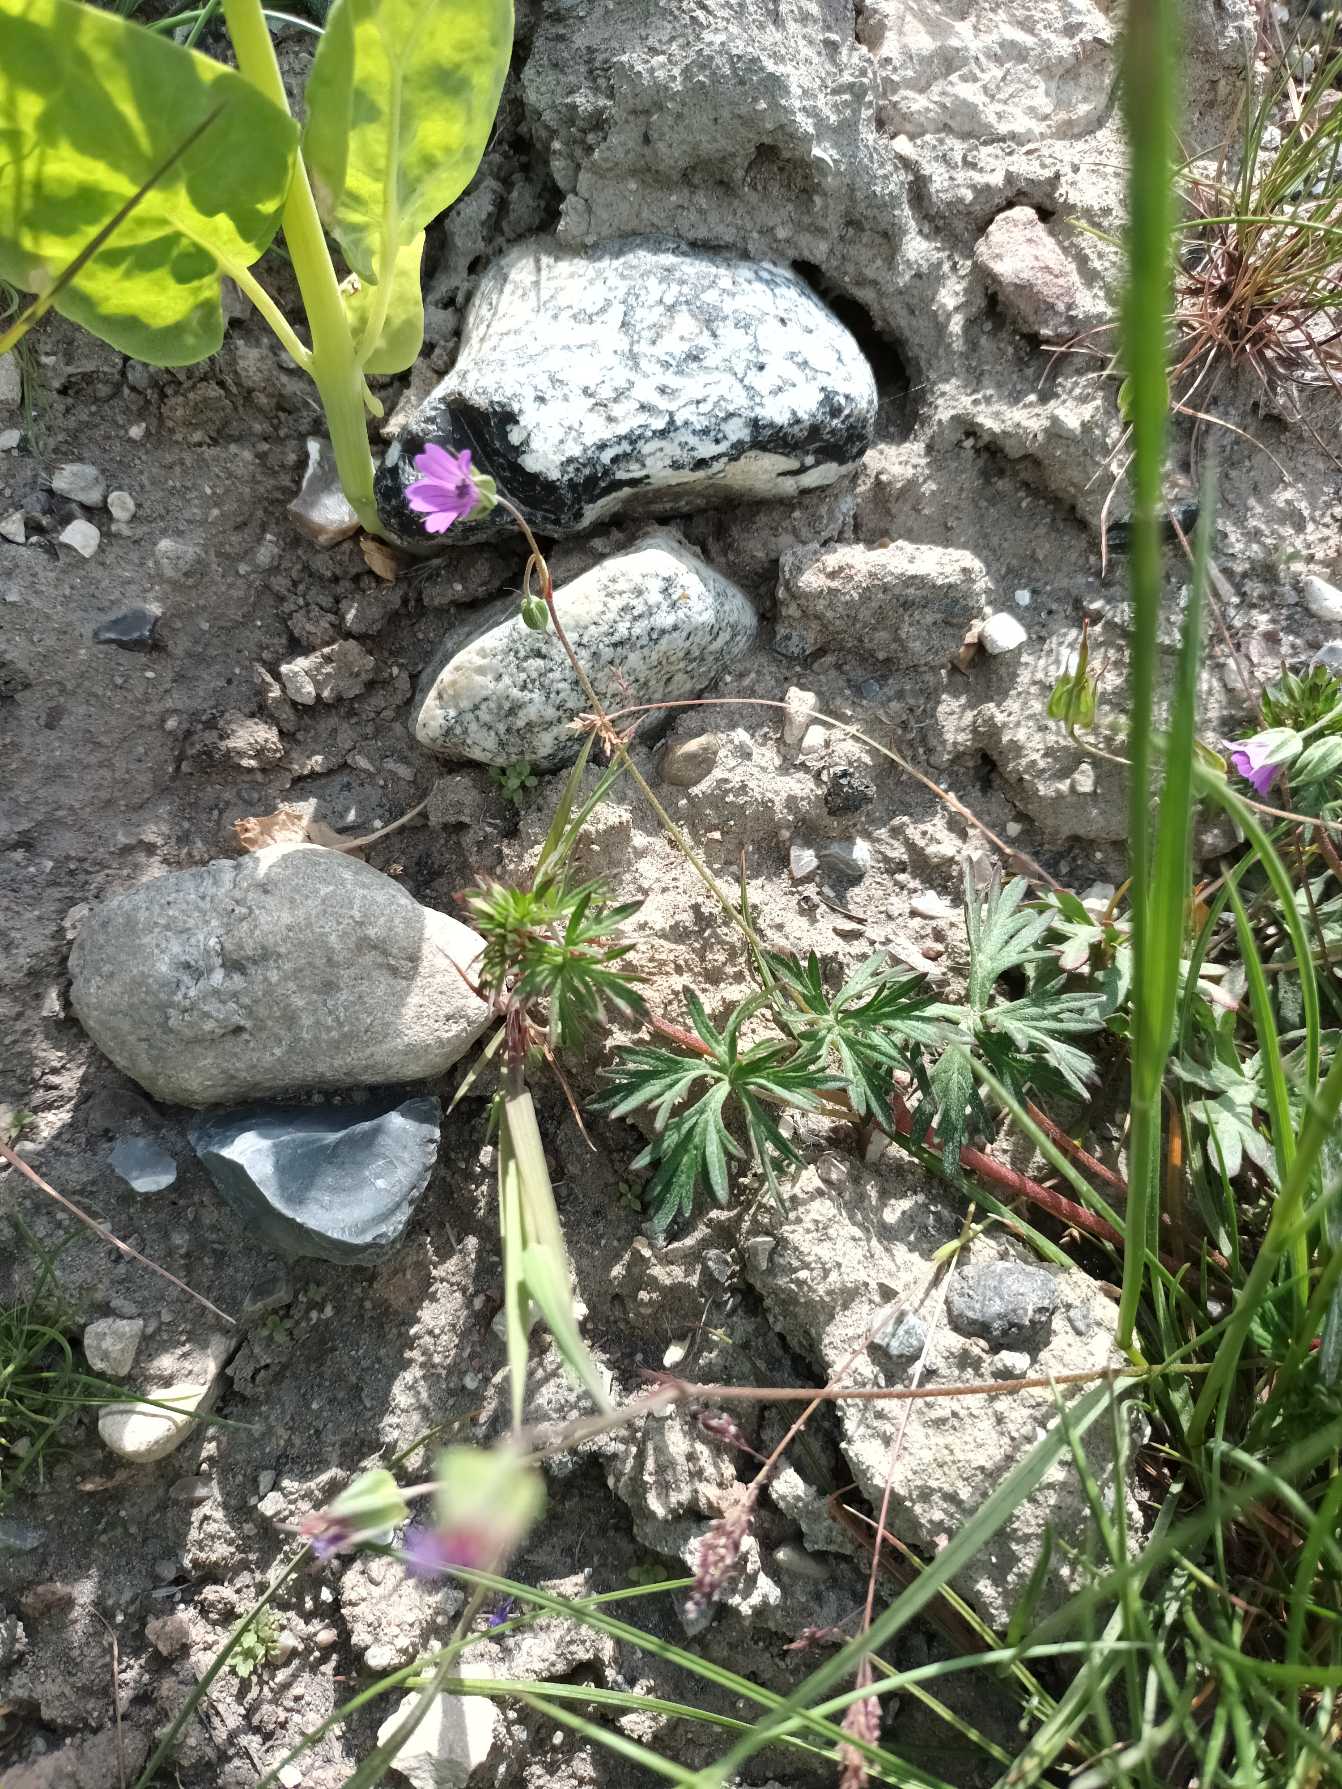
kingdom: Plantae
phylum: Tracheophyta
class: Magnoliopsida
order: Geraniales
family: Geraniaceae
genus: Geranium
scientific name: Geranium columbinum
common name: Storbægret storkenæb
